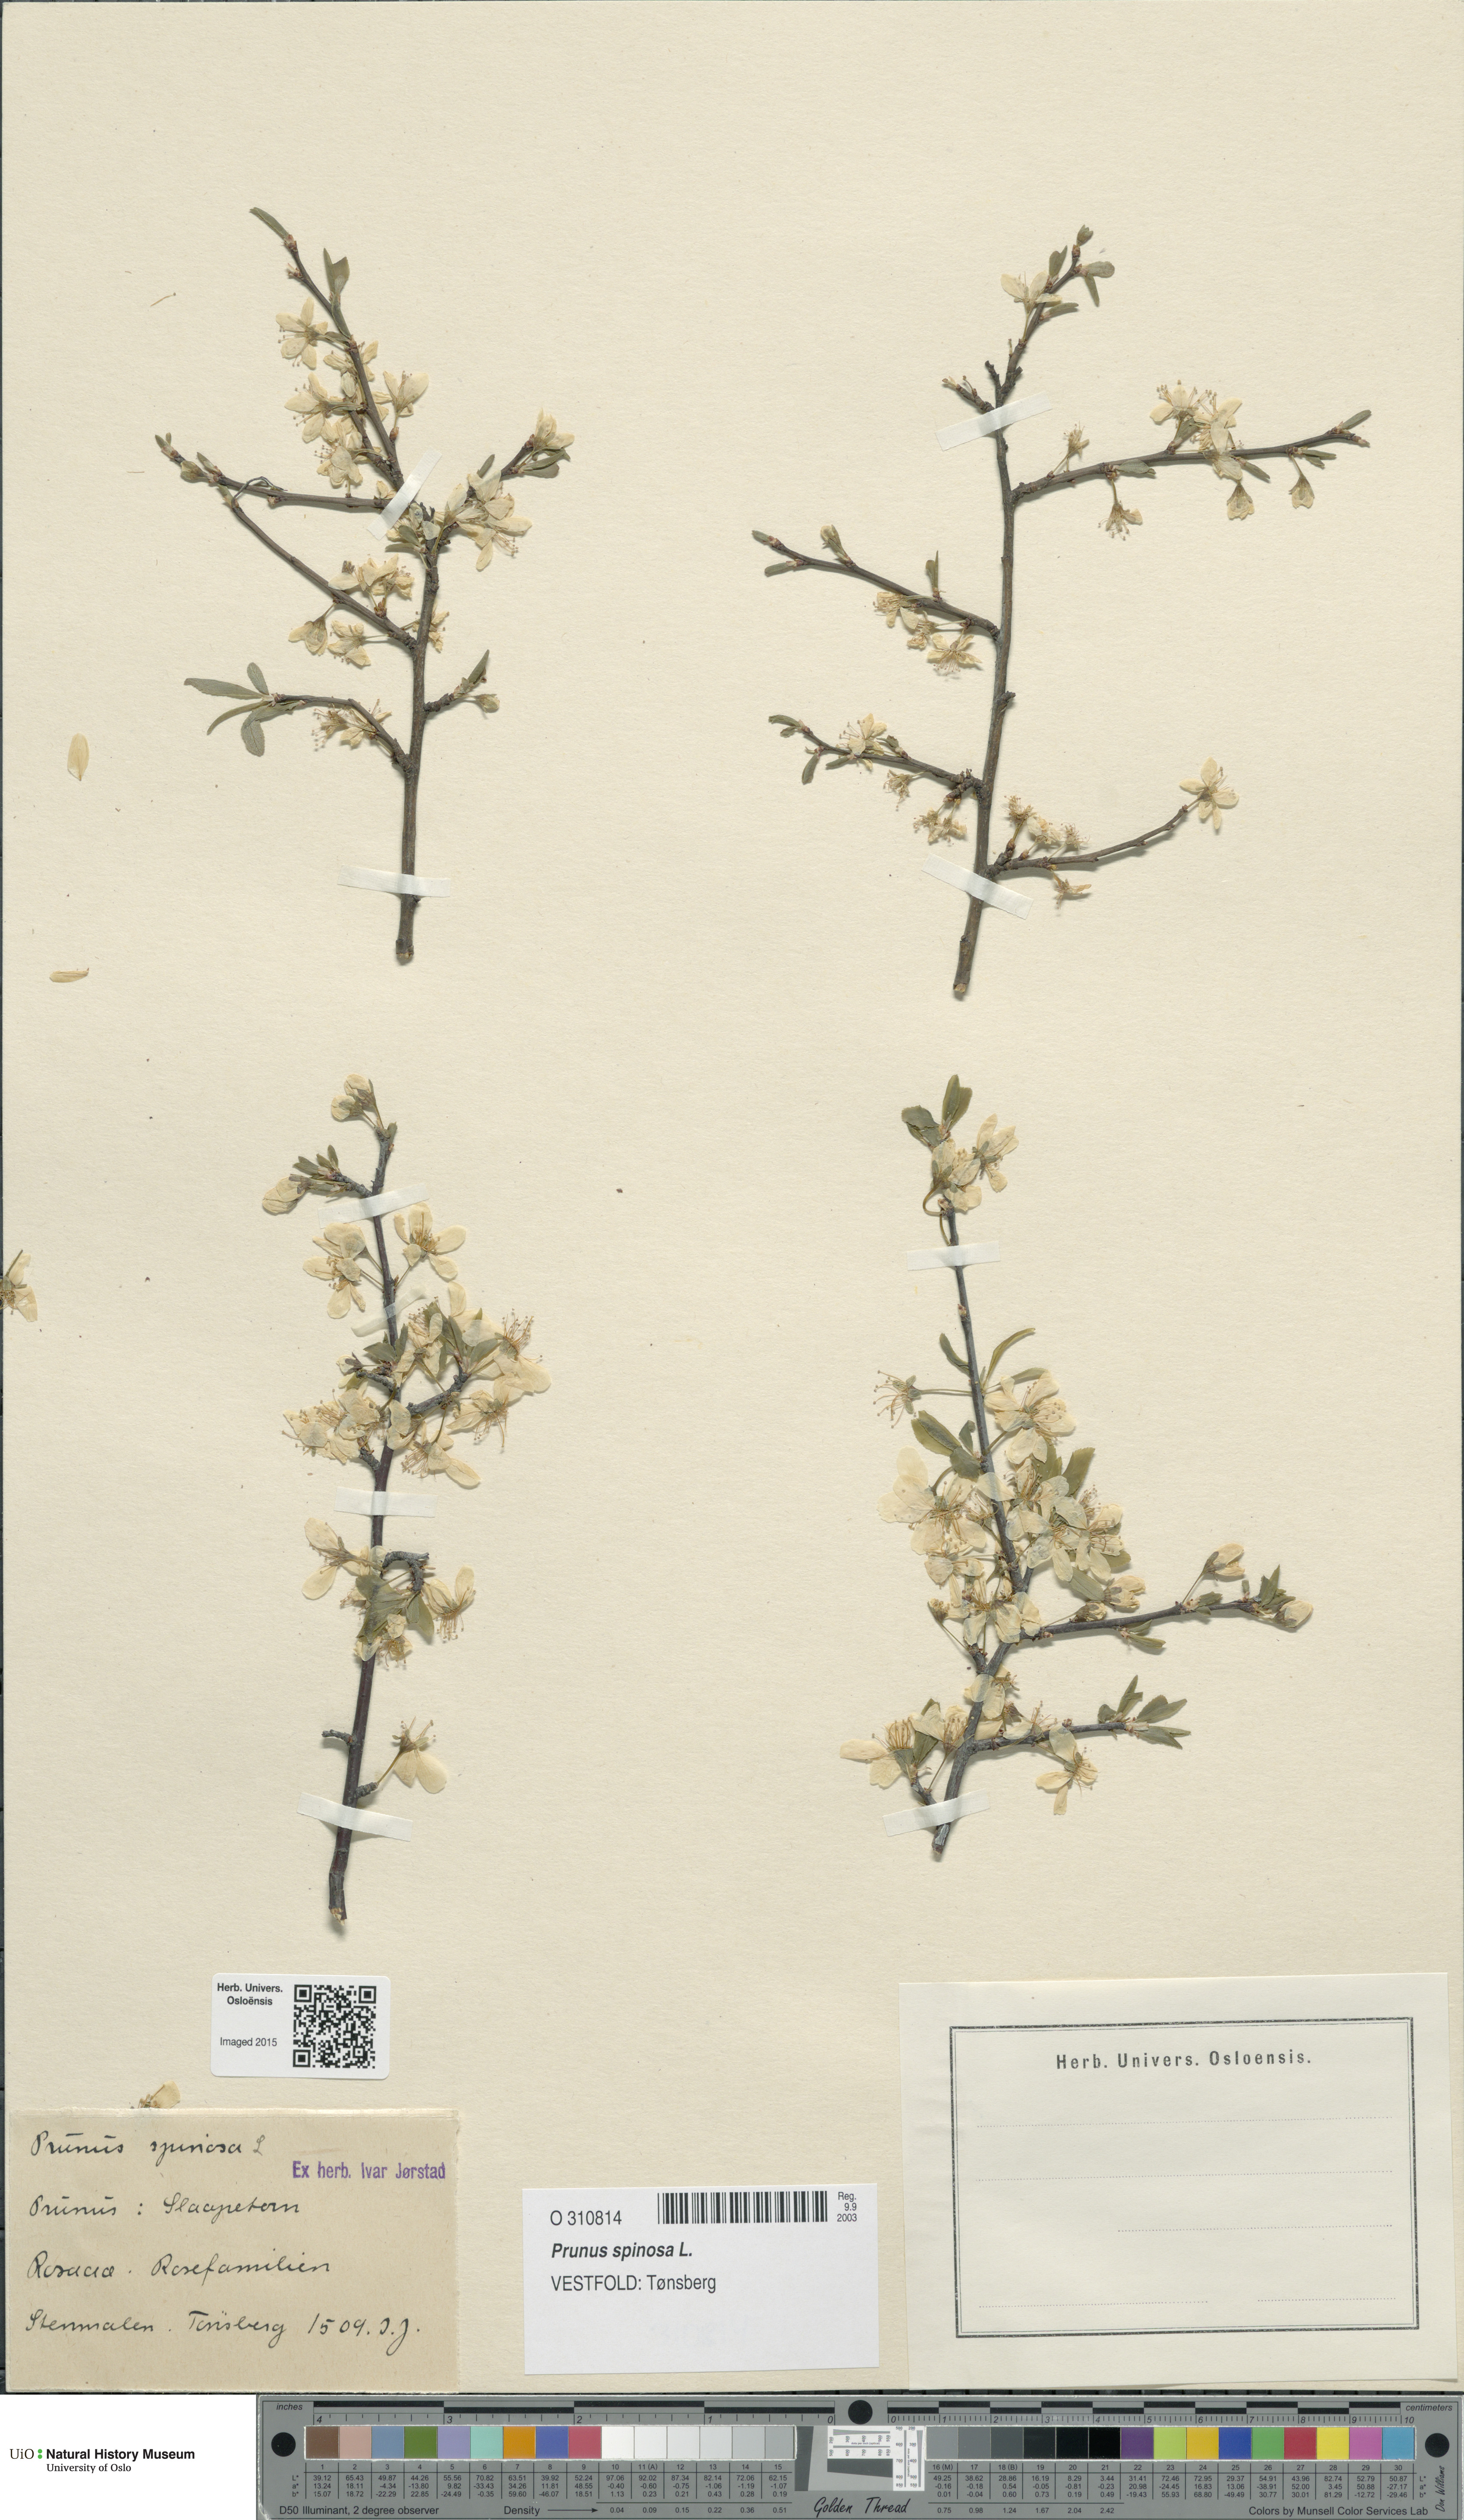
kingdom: Plantae
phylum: Tracheophyta
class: Magnoliopsida
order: Rosales
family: Rosaceae
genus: Prunus
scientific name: Prunus spinosa
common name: Blackthorn
